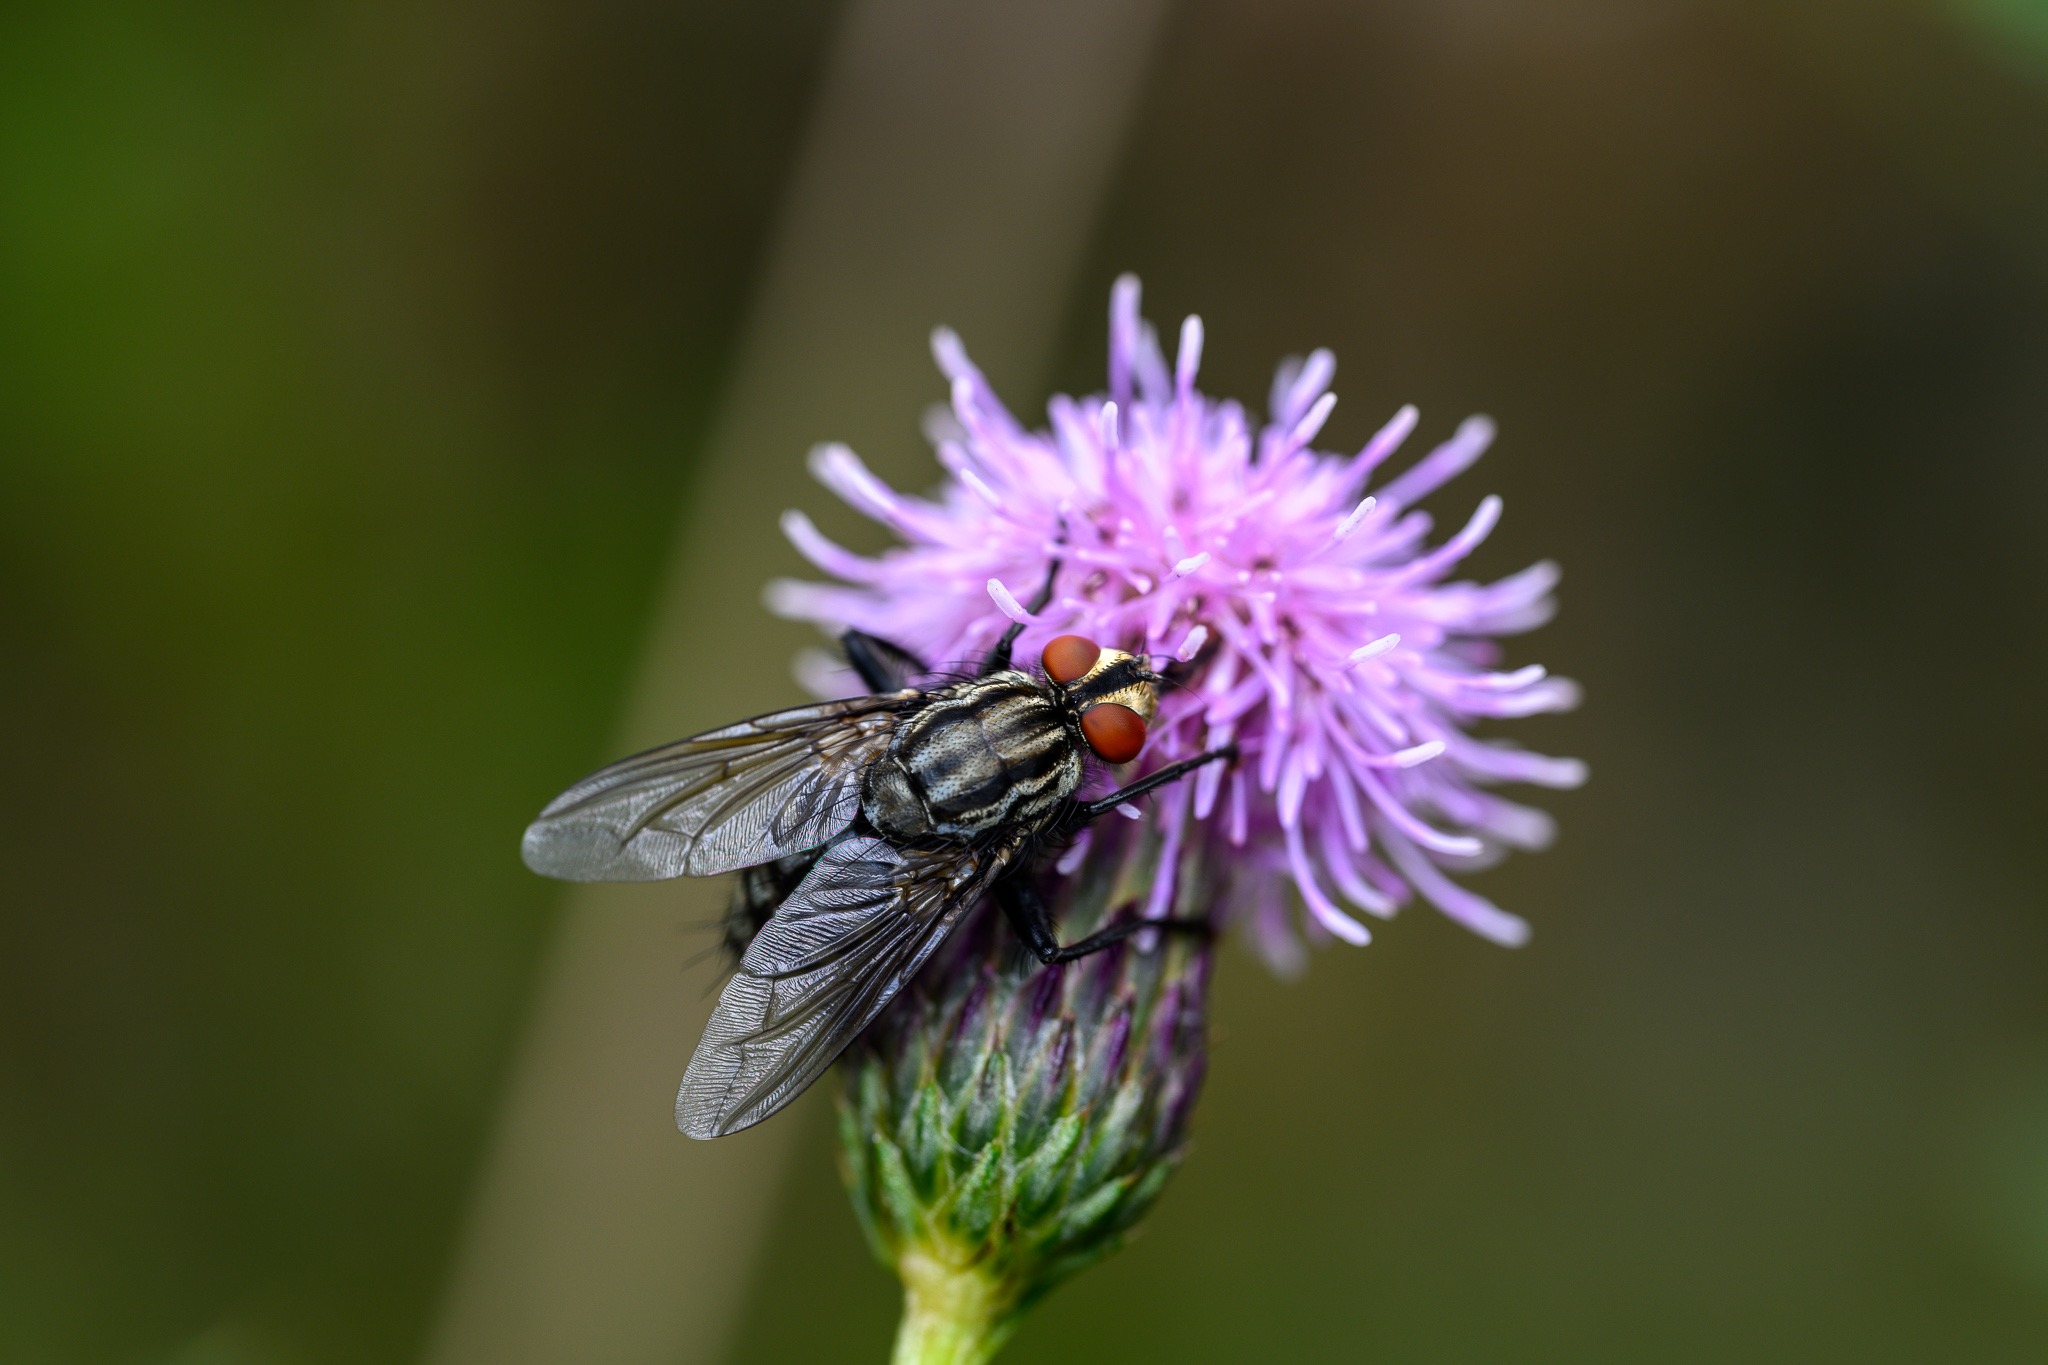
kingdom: Animalia
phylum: Arthropoda
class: Insecta
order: Diptera
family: Sarcophagidae
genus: Sarcophaga
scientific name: Sarcophaga
